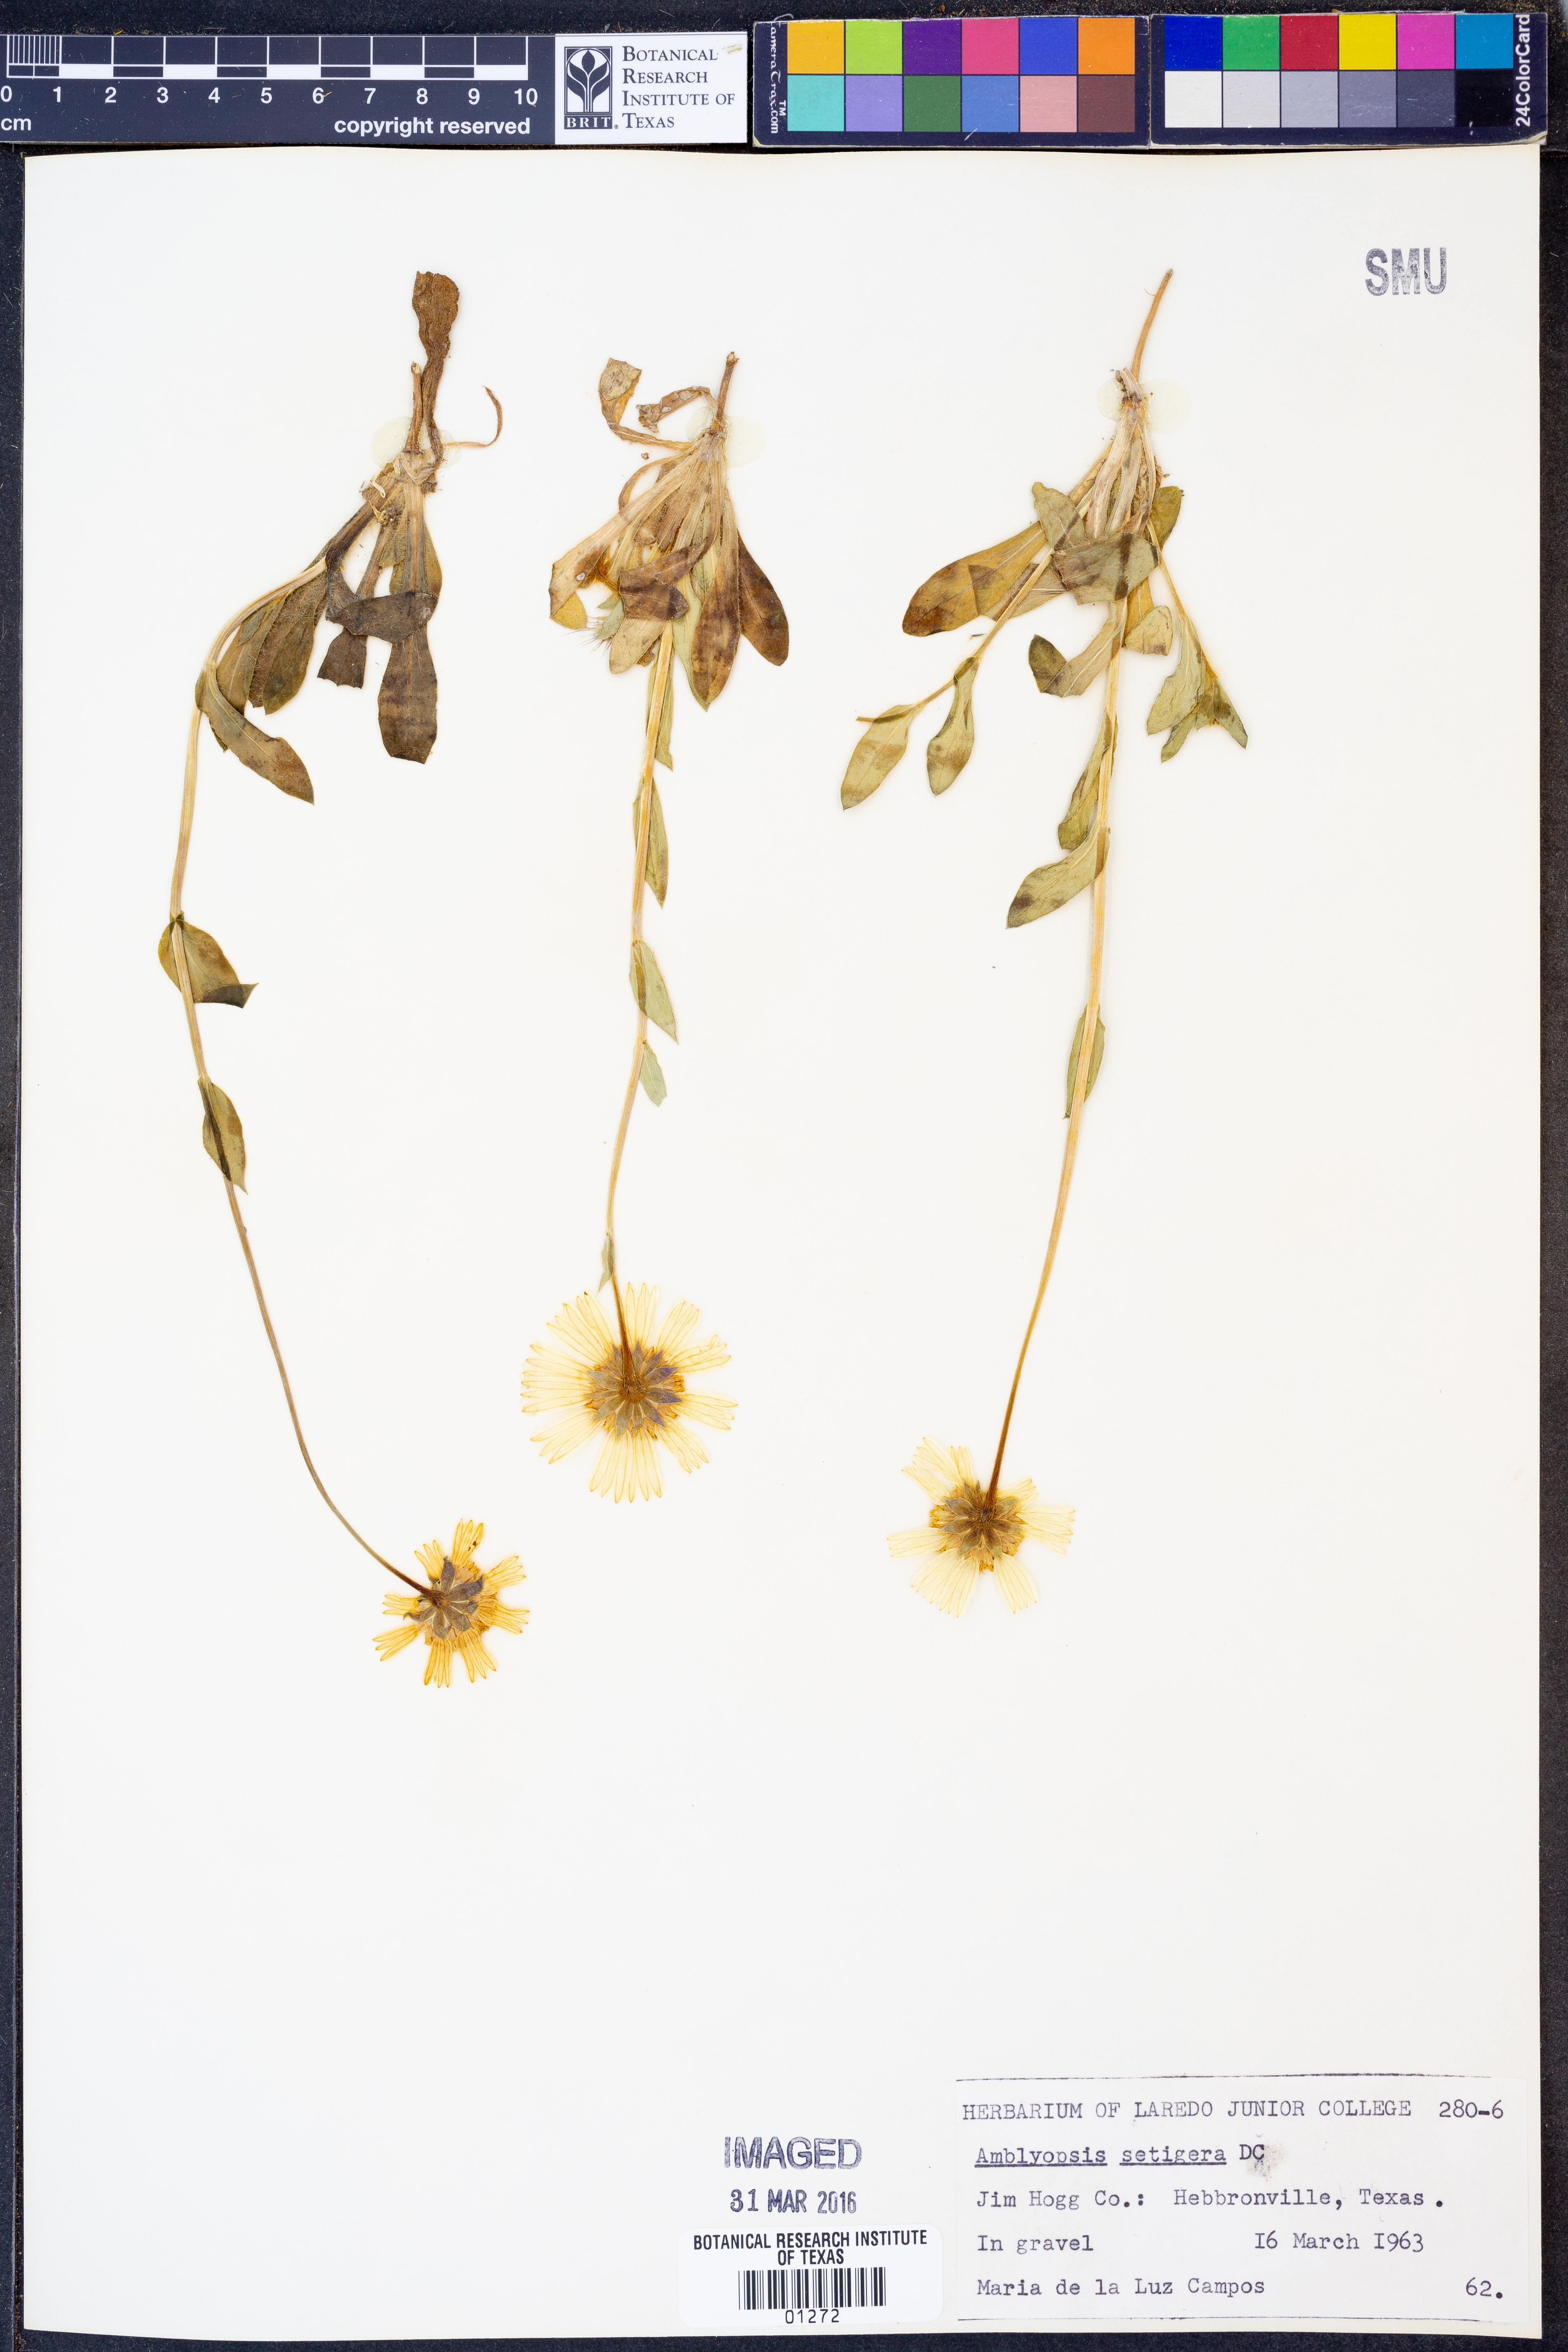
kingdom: Plantae
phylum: Tracheophyta
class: Magnoliopsida
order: Asterales
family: Asteraceae
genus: Amblyolepis
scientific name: Amblyolepis setigera
